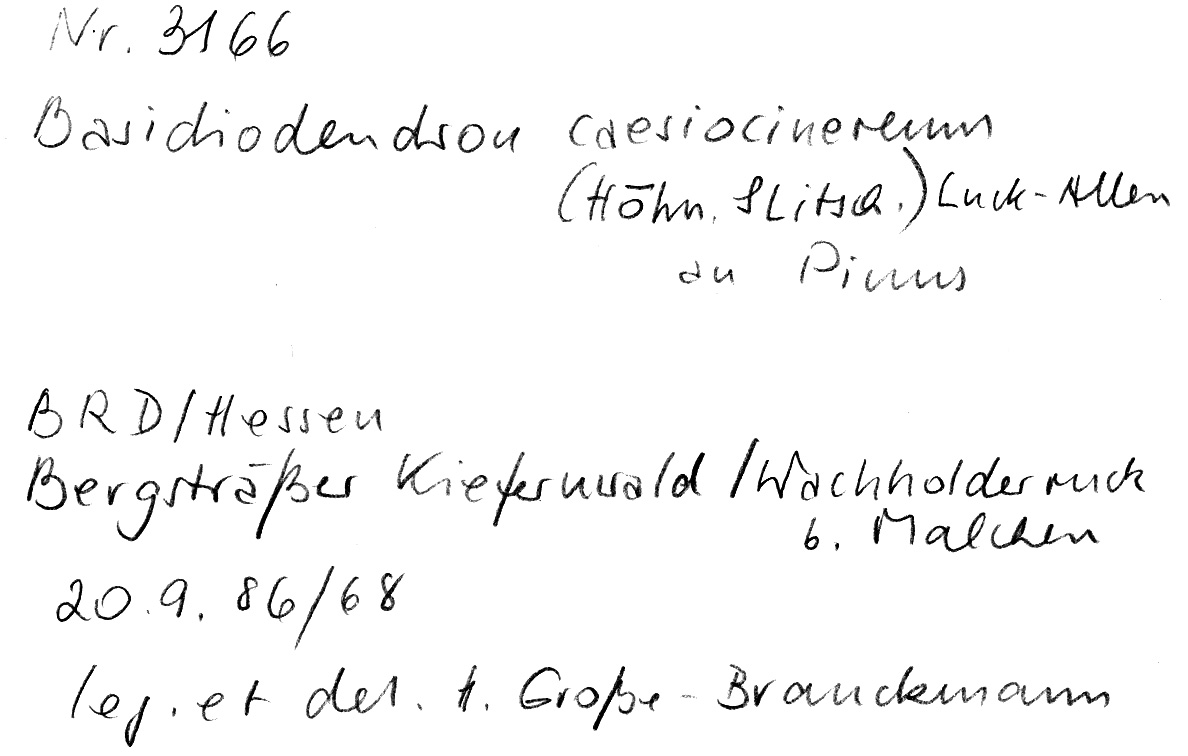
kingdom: Plantae
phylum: Tracheophyta
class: Pinopsida
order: Pinales
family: Pinaceae
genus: Pinus
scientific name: Pinus
